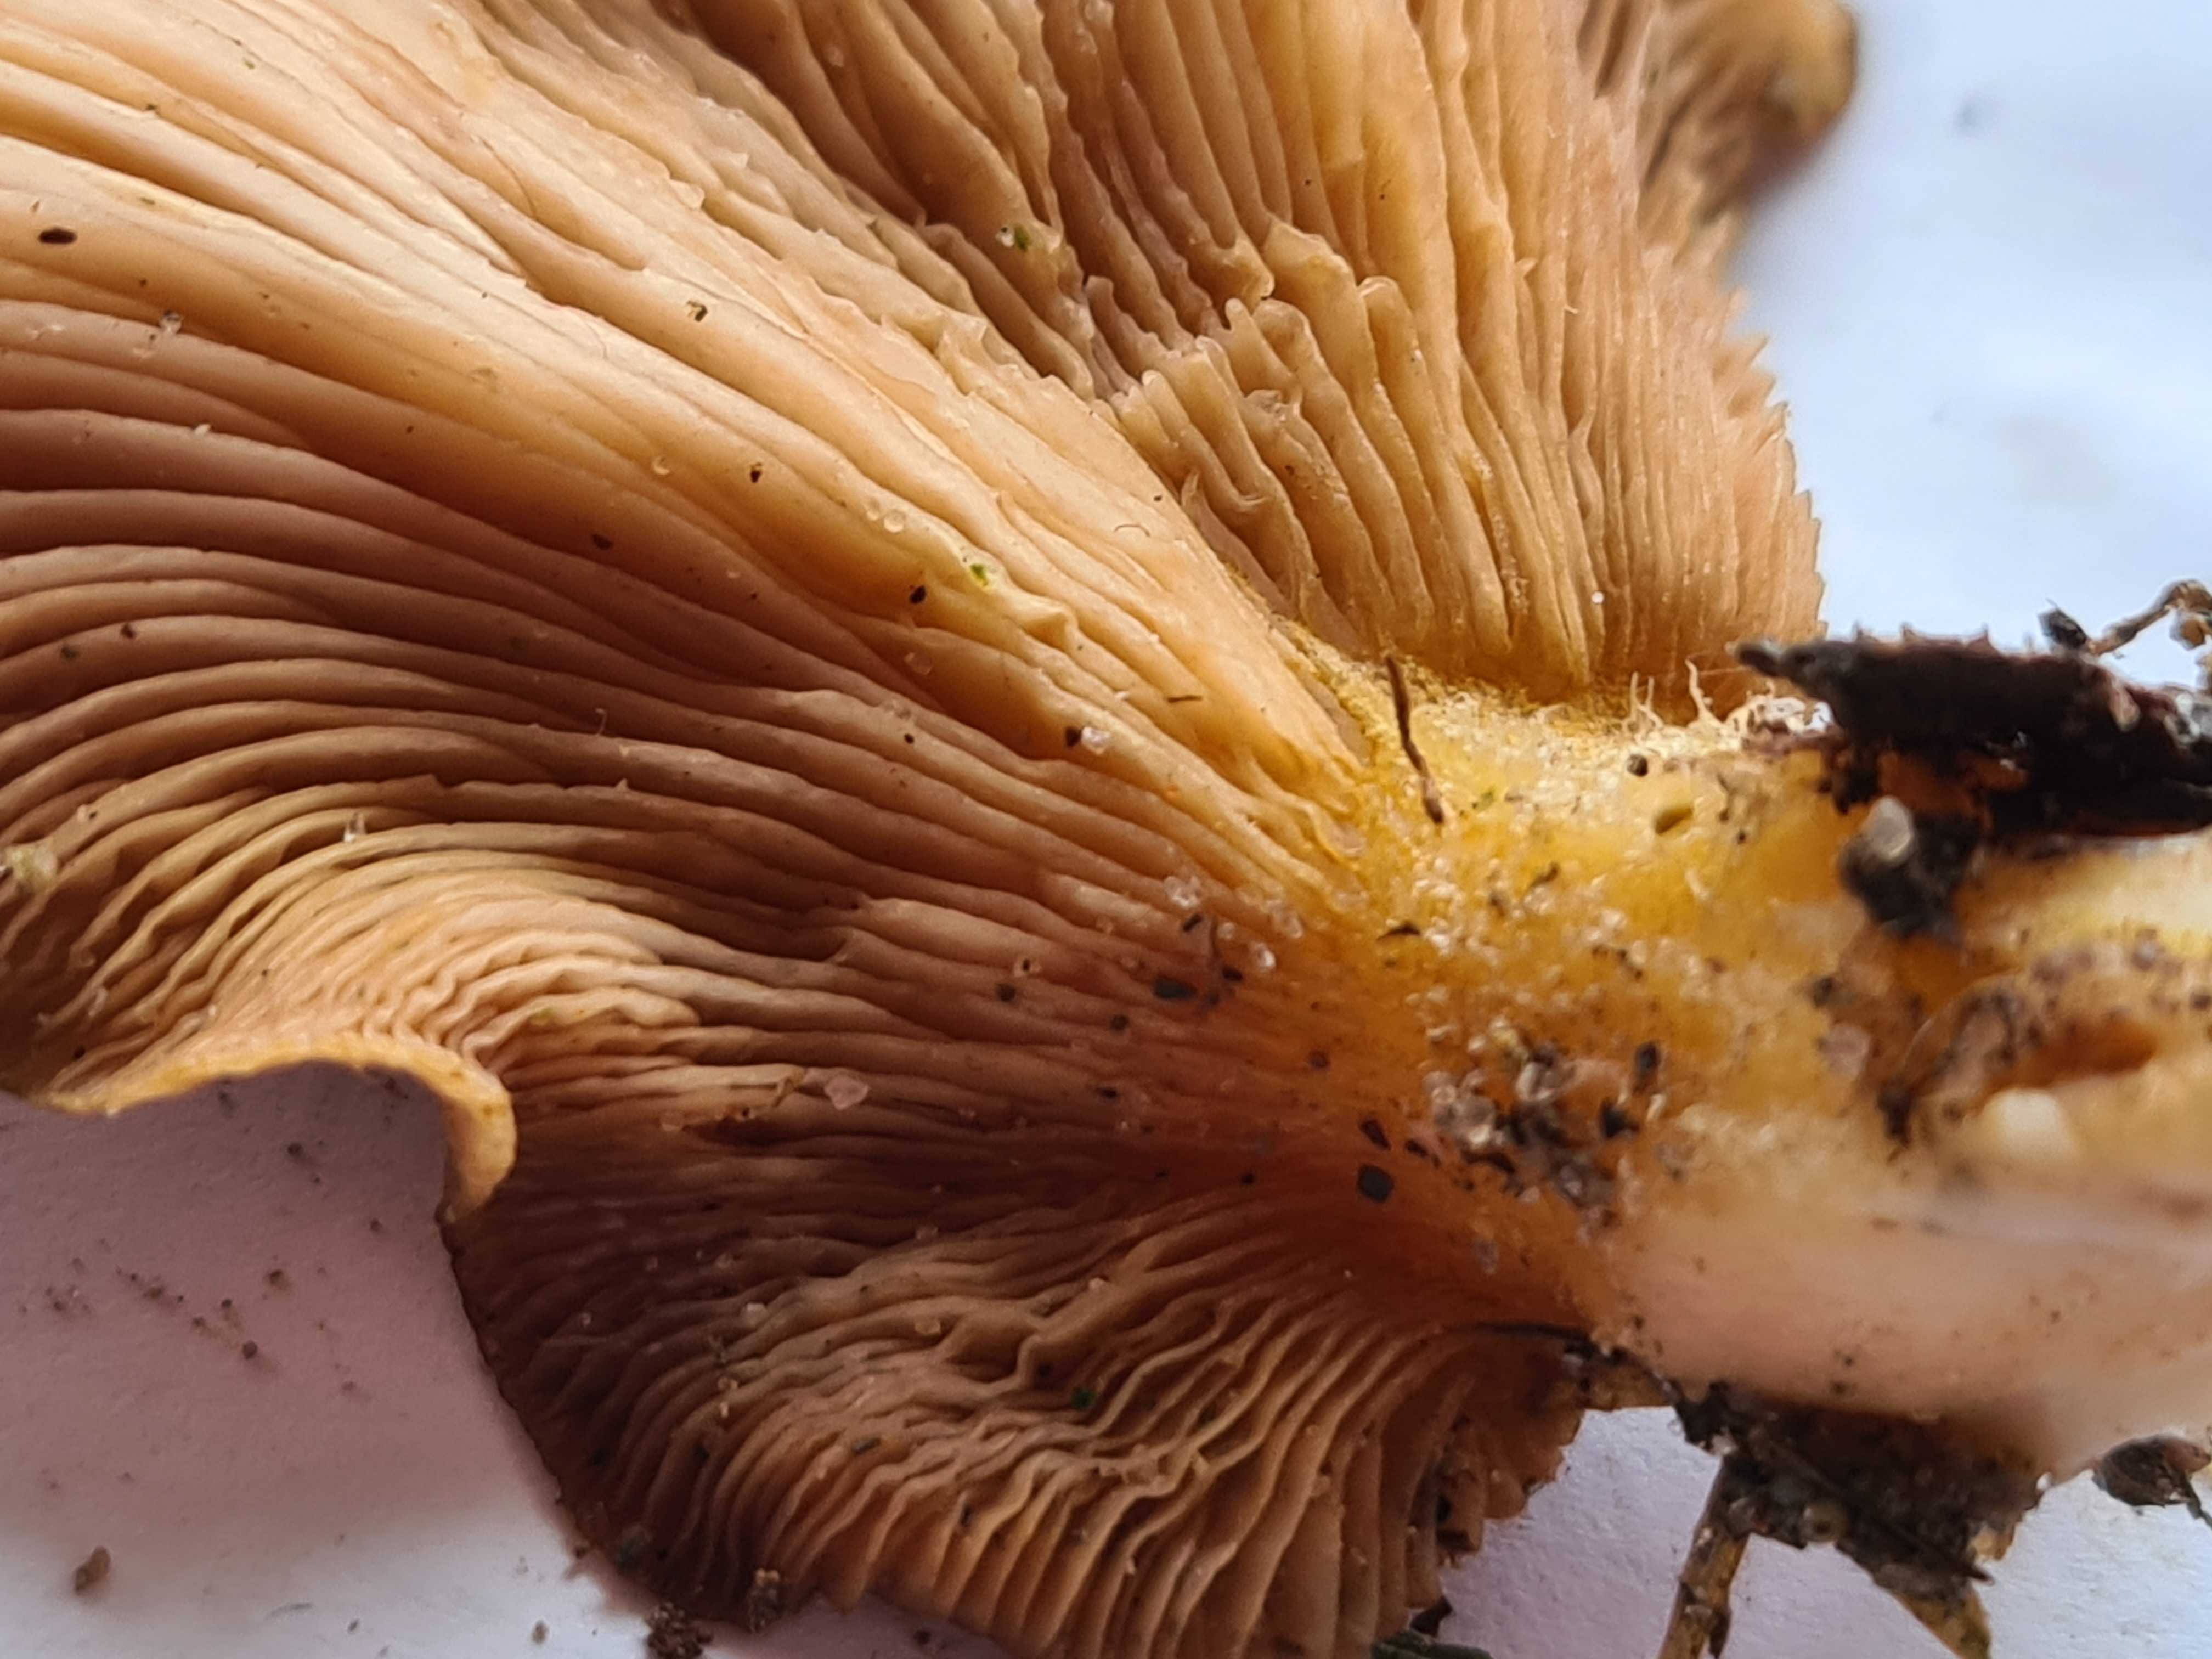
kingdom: Fungi
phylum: Basidiomycota
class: Agaricomycetes
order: Agaricales
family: Sarcomyxaceae
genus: Sarcomyxa
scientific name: Sarcomyxa serotina
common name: gummihat
